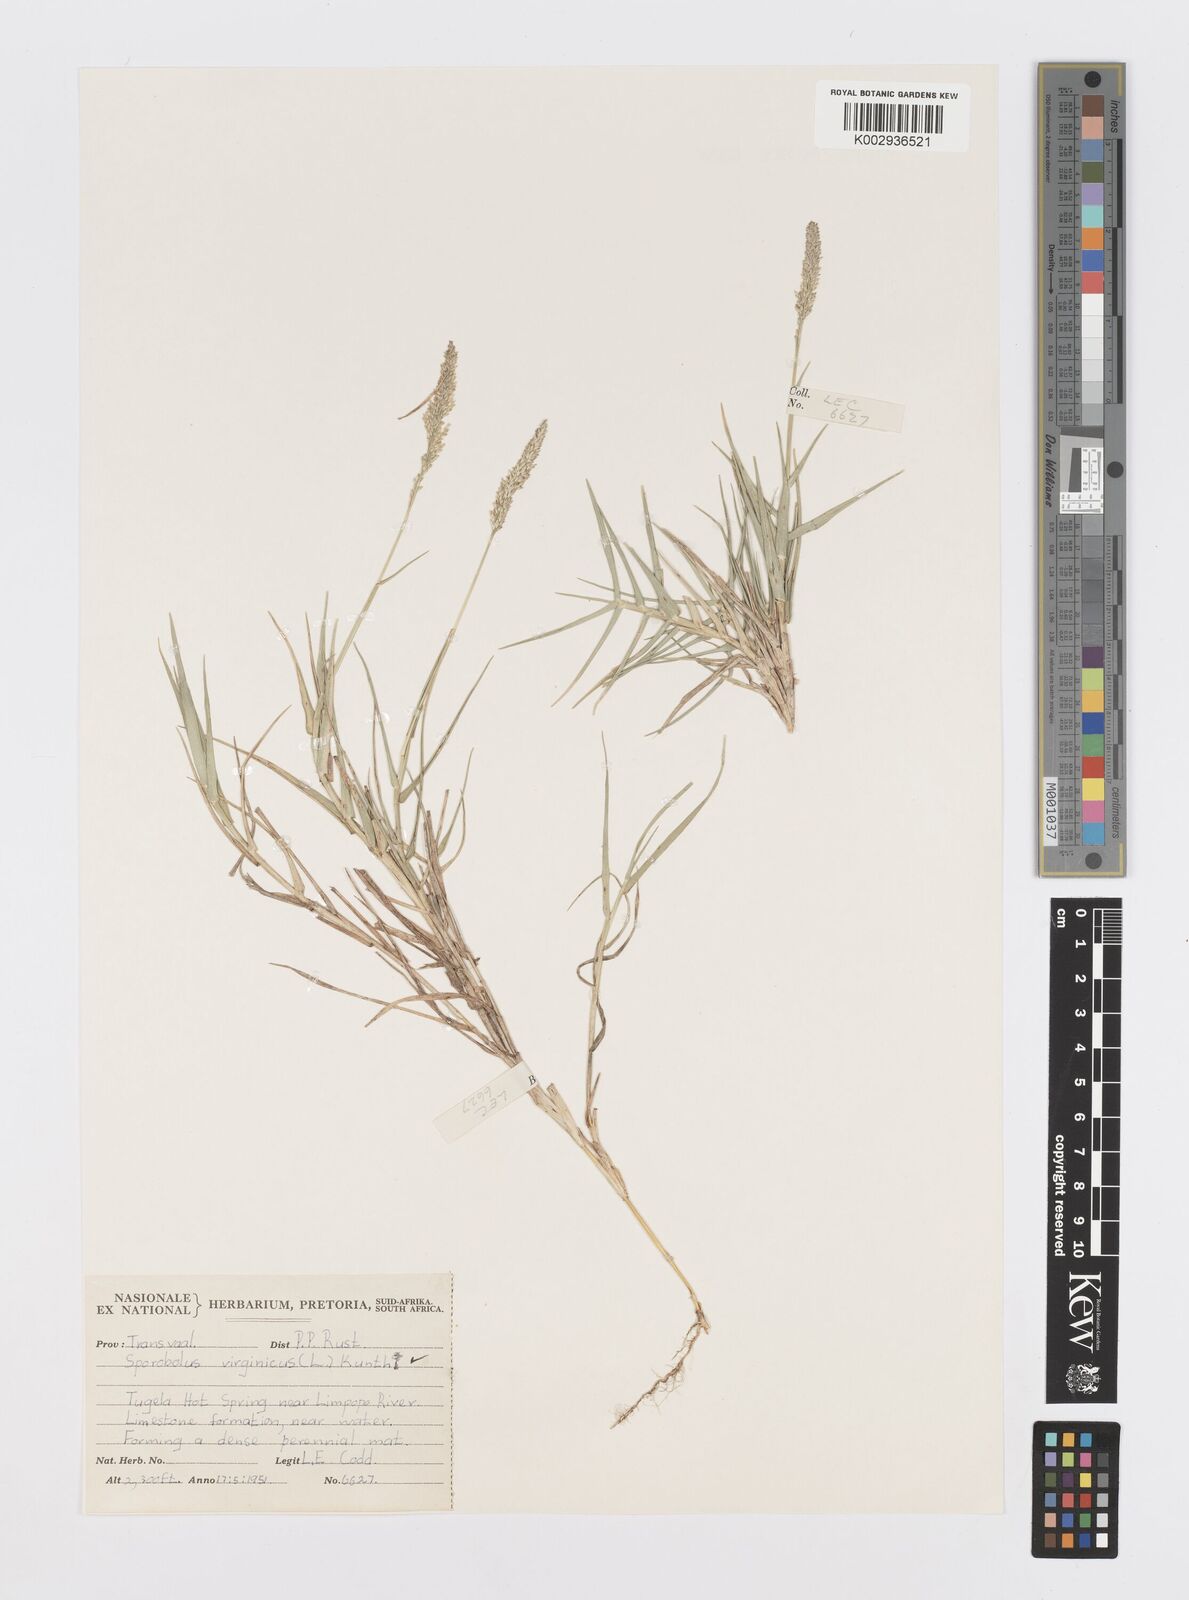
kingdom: Plantae
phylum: Tracheophyta
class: Liliopsida
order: Poales
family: Poaceae
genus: Sporobolus
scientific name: Sporobolus virginicus
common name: Beach dropseed
